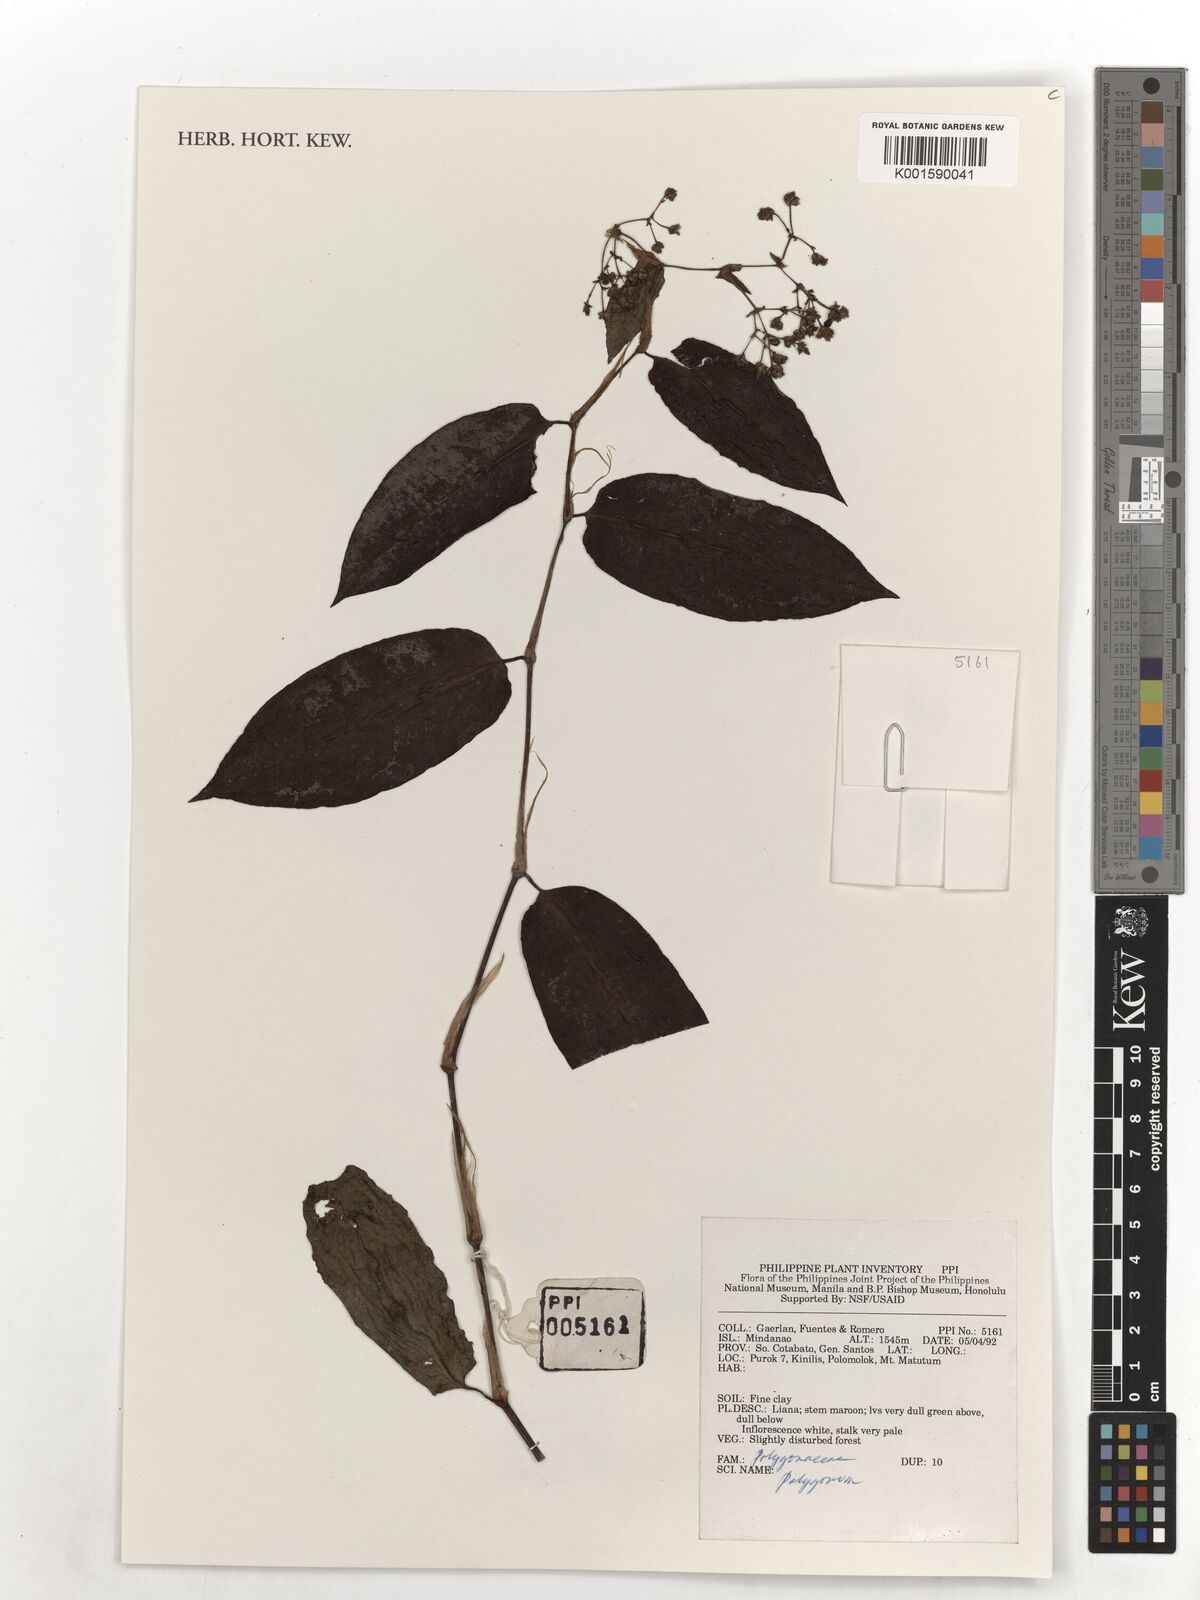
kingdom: Plantae
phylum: Tracheophyta
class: Magnoliopsida
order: Caryophyllales
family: Polygonaceae
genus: Polygonum
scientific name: Polygonum
